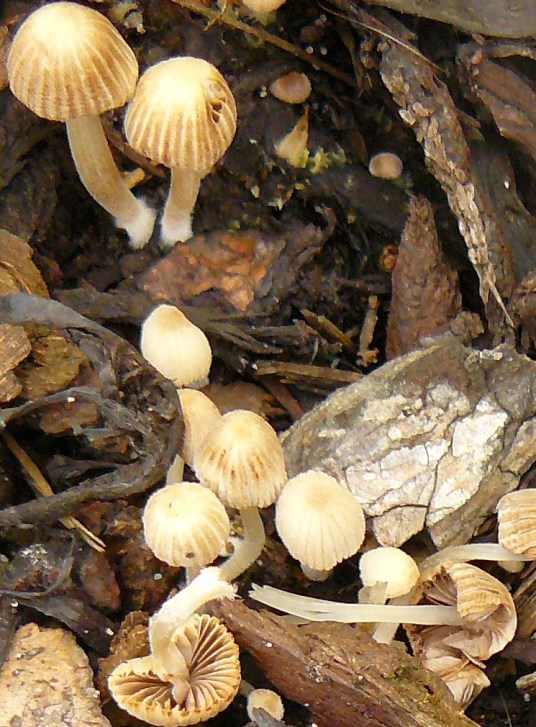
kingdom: Fungi
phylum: Basidiomycota
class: Agaricomycetes
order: Agaricales
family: Psathyrellaceae
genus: Coprinellus
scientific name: Coprinellus disseminatus
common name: bredsået blækhat
